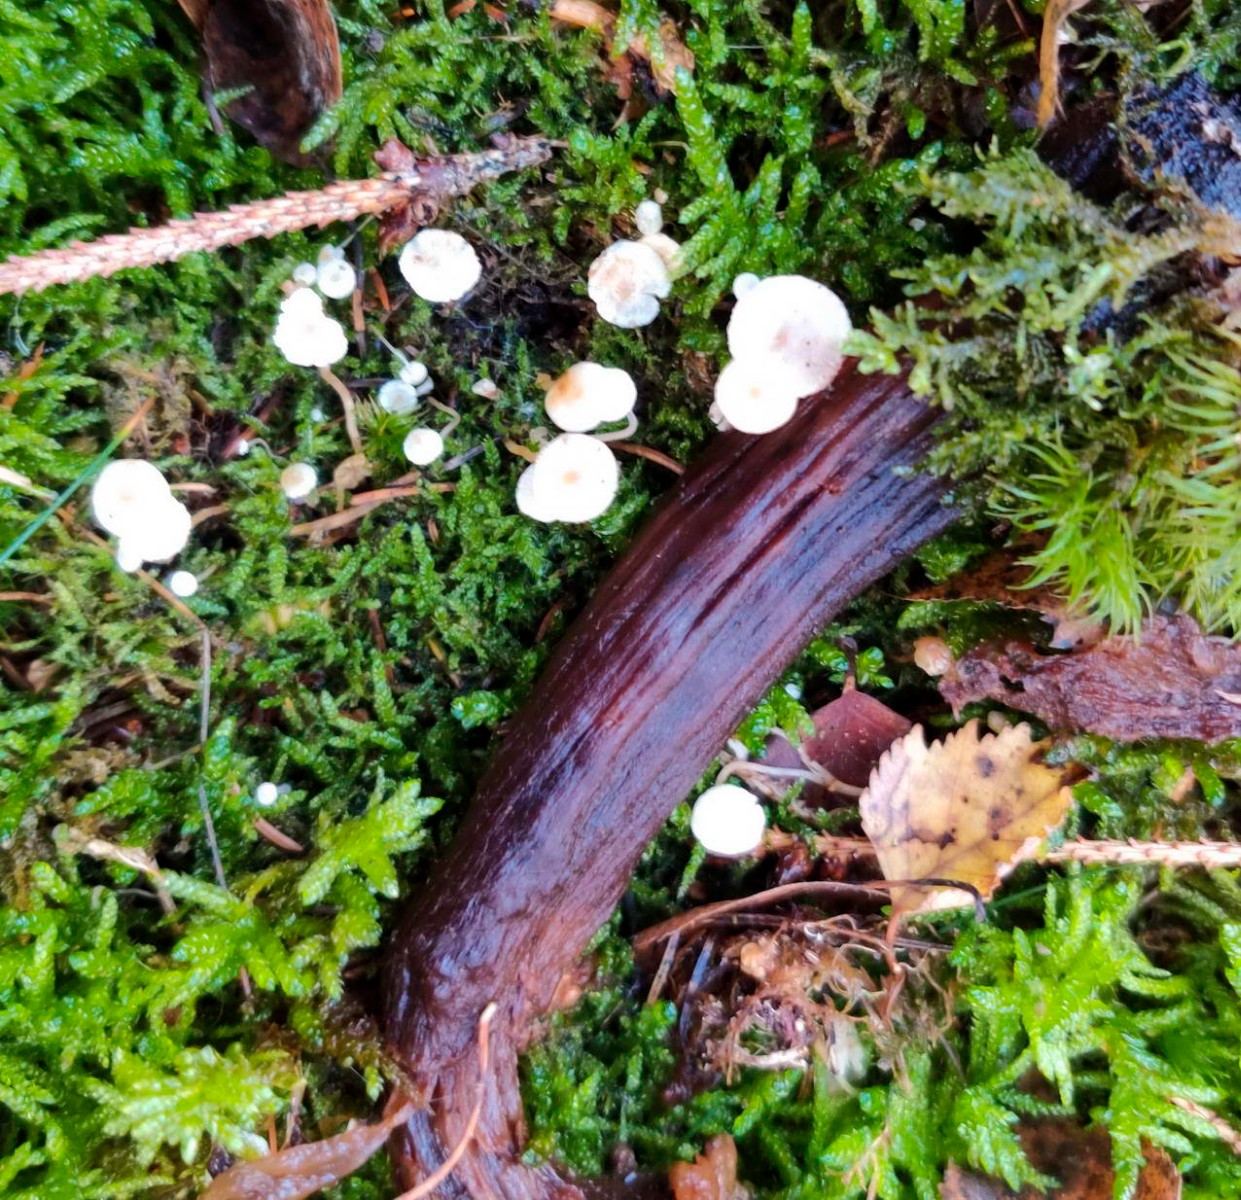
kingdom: Fungi
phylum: Basidiomycota
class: Agaricomycetes
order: Agaricales
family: Tricholomataceae
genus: Collybia
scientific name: Collybia cookei
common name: gulknoldet lighat
